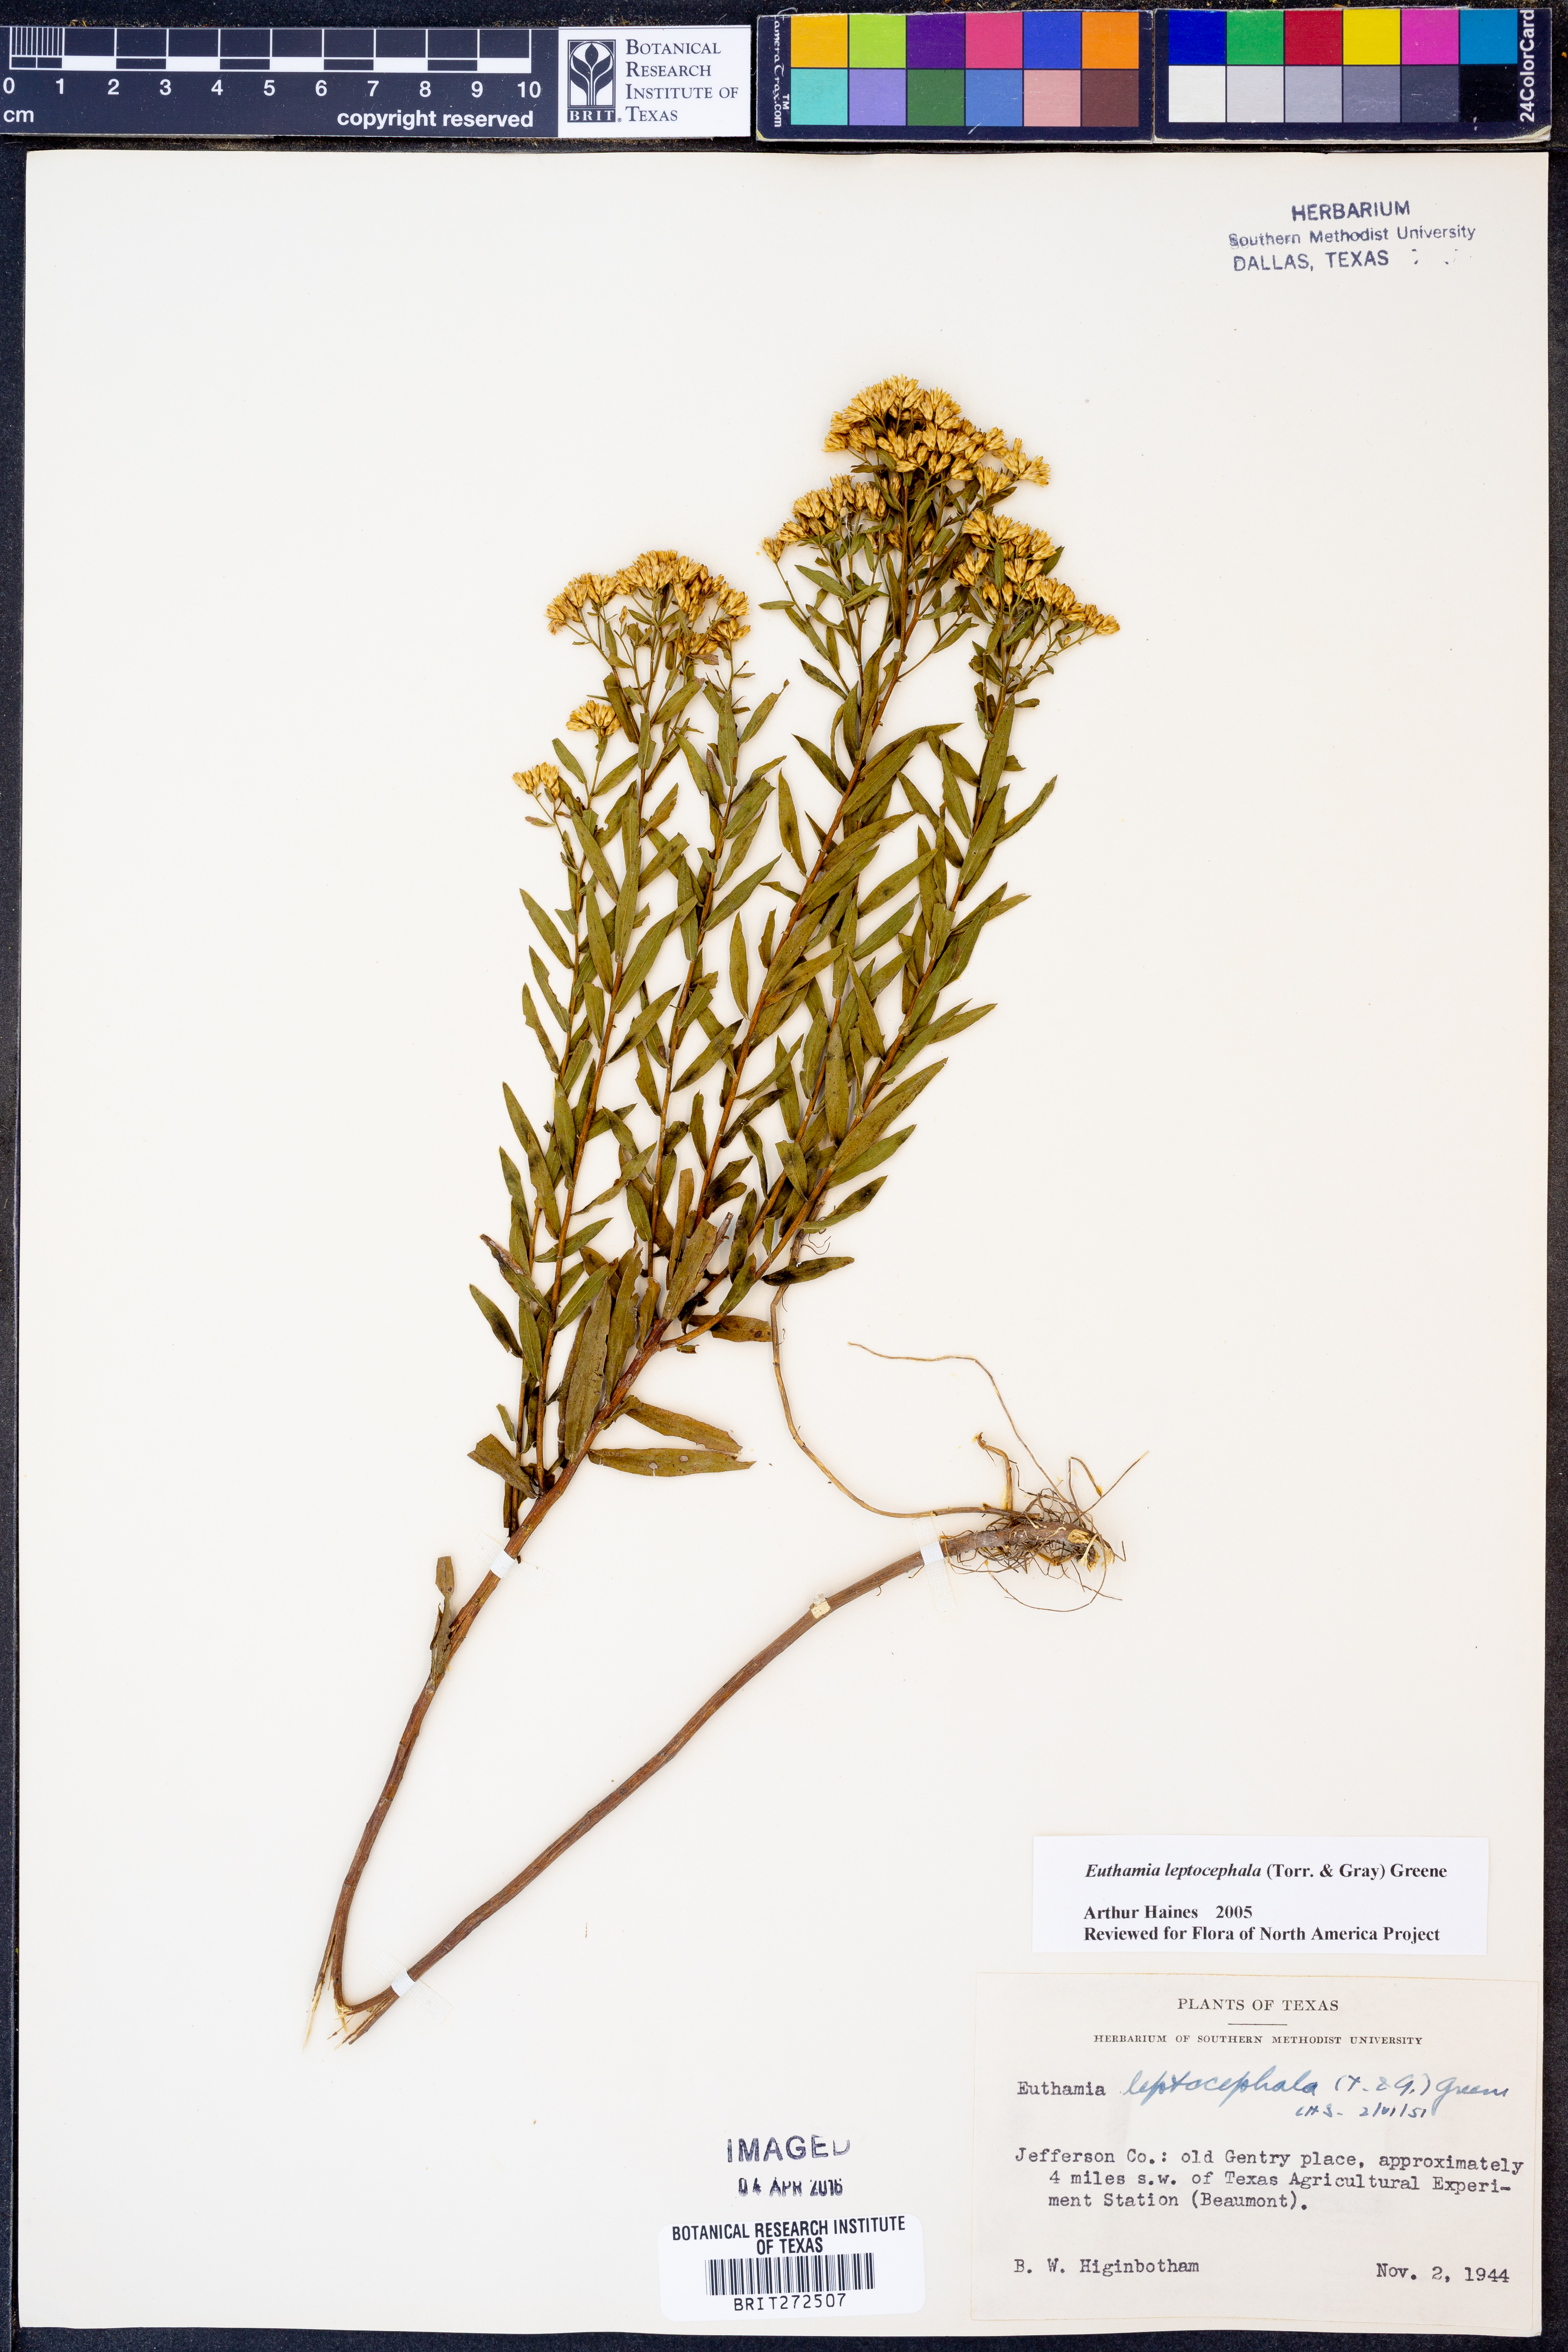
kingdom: Plantae
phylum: Tracheophyta
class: Magnoliopsida
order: Asterales
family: Asteraceae
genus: Euthamia
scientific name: Euthamia leptocephala
